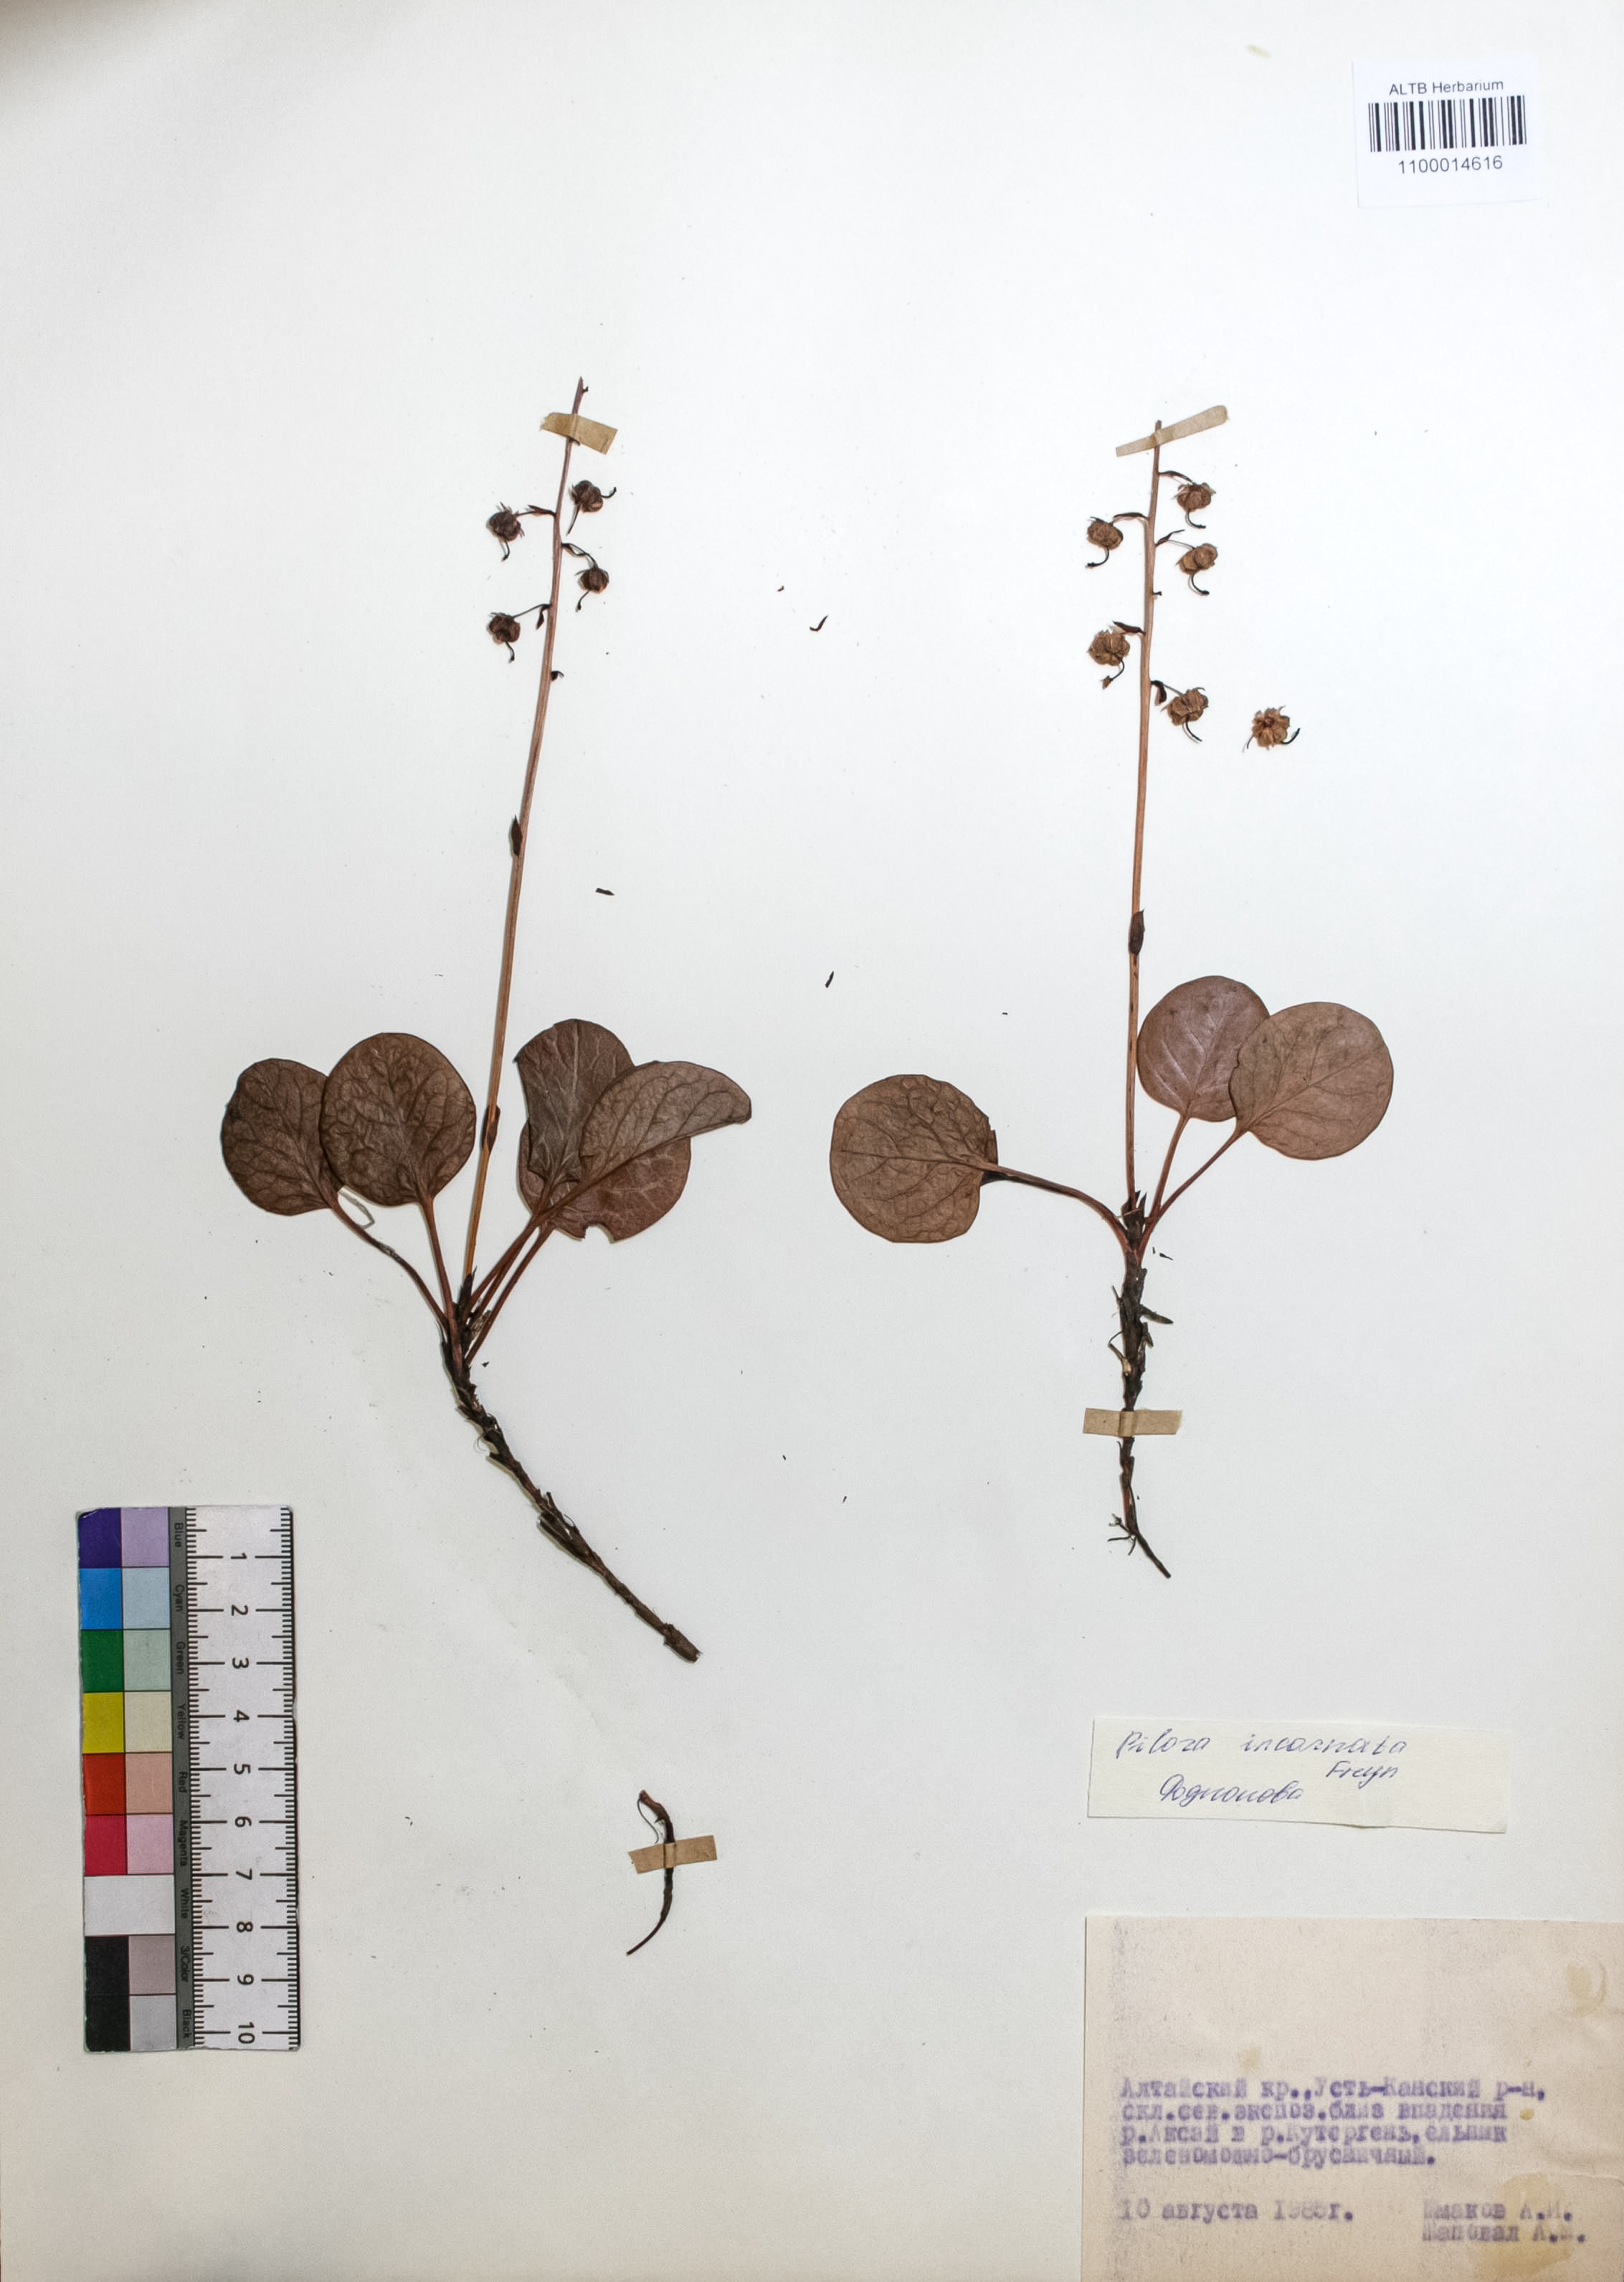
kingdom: Plantae
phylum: Tracheophyta
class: Magnoliopsida
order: Ericales
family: Ericaceae
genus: Pyrola
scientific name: Pyrola asarifolia
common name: Bog wintergreen
